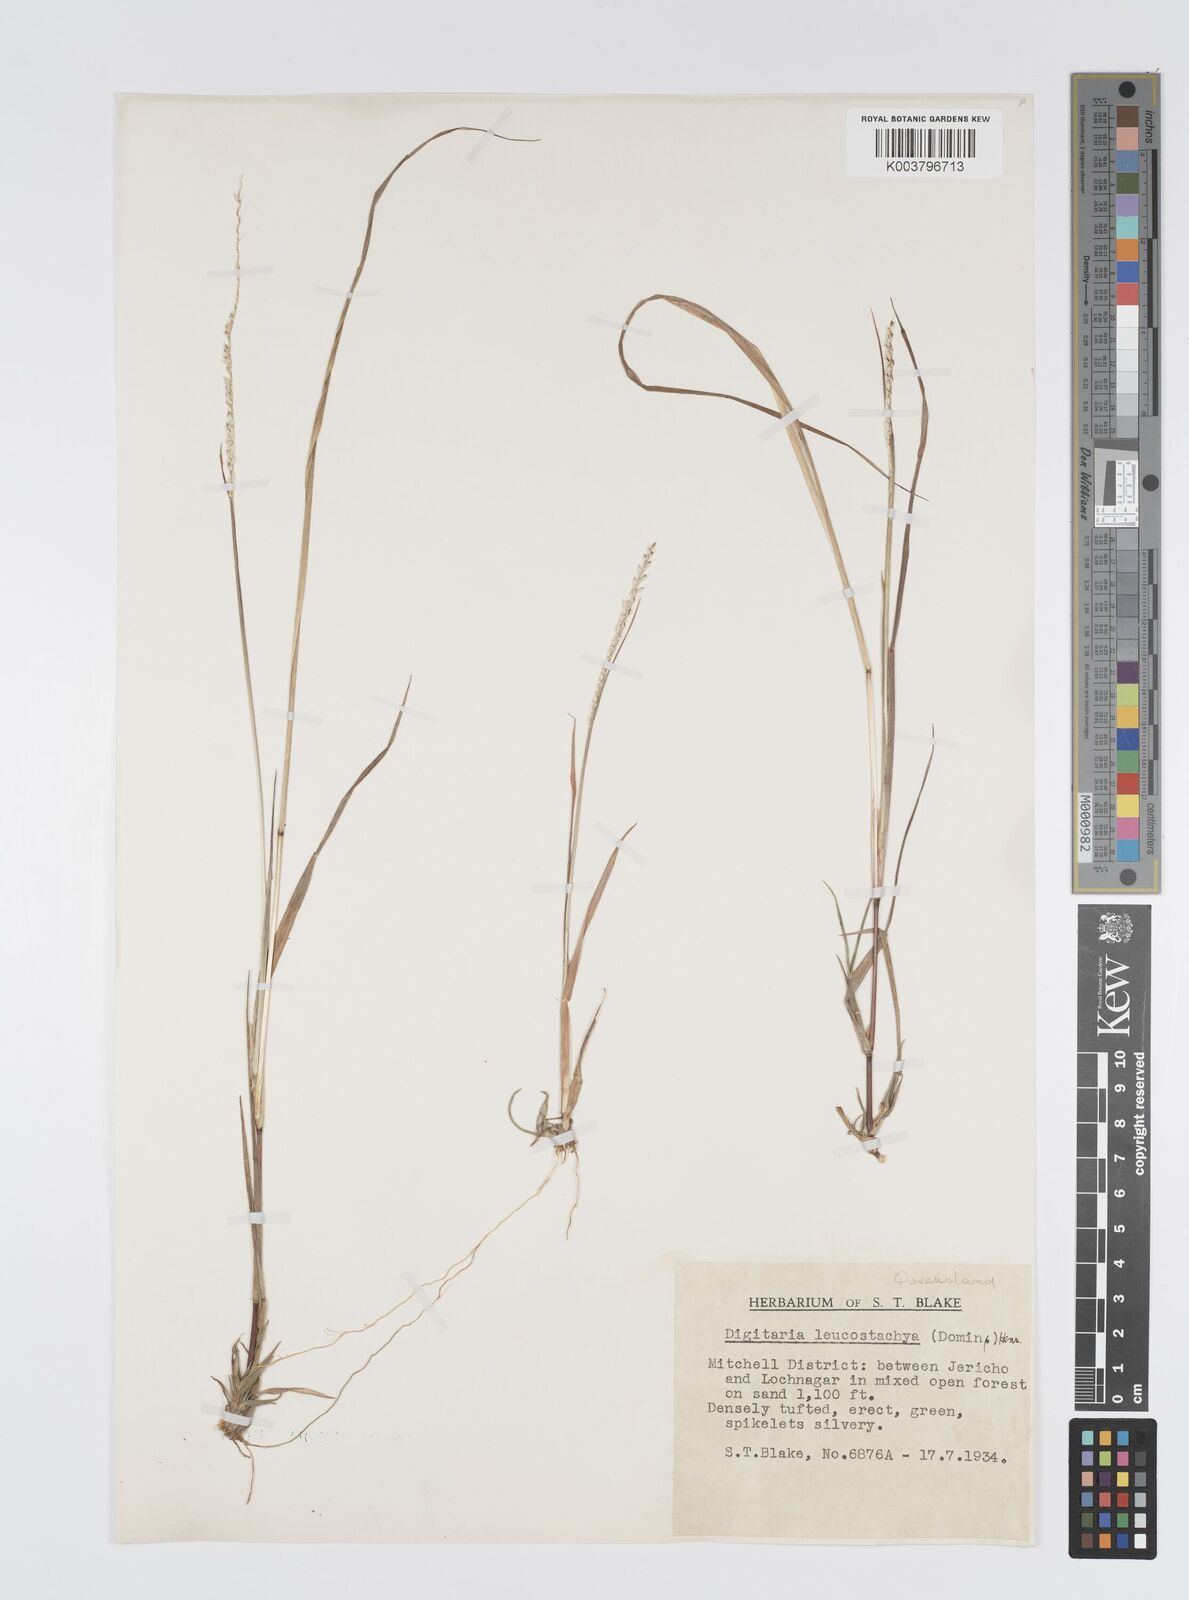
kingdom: Plantae
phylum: Tracheophyta
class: Liliopsida
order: Poales
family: Poaceae
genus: Digitaria
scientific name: Digitaria leucostachya
